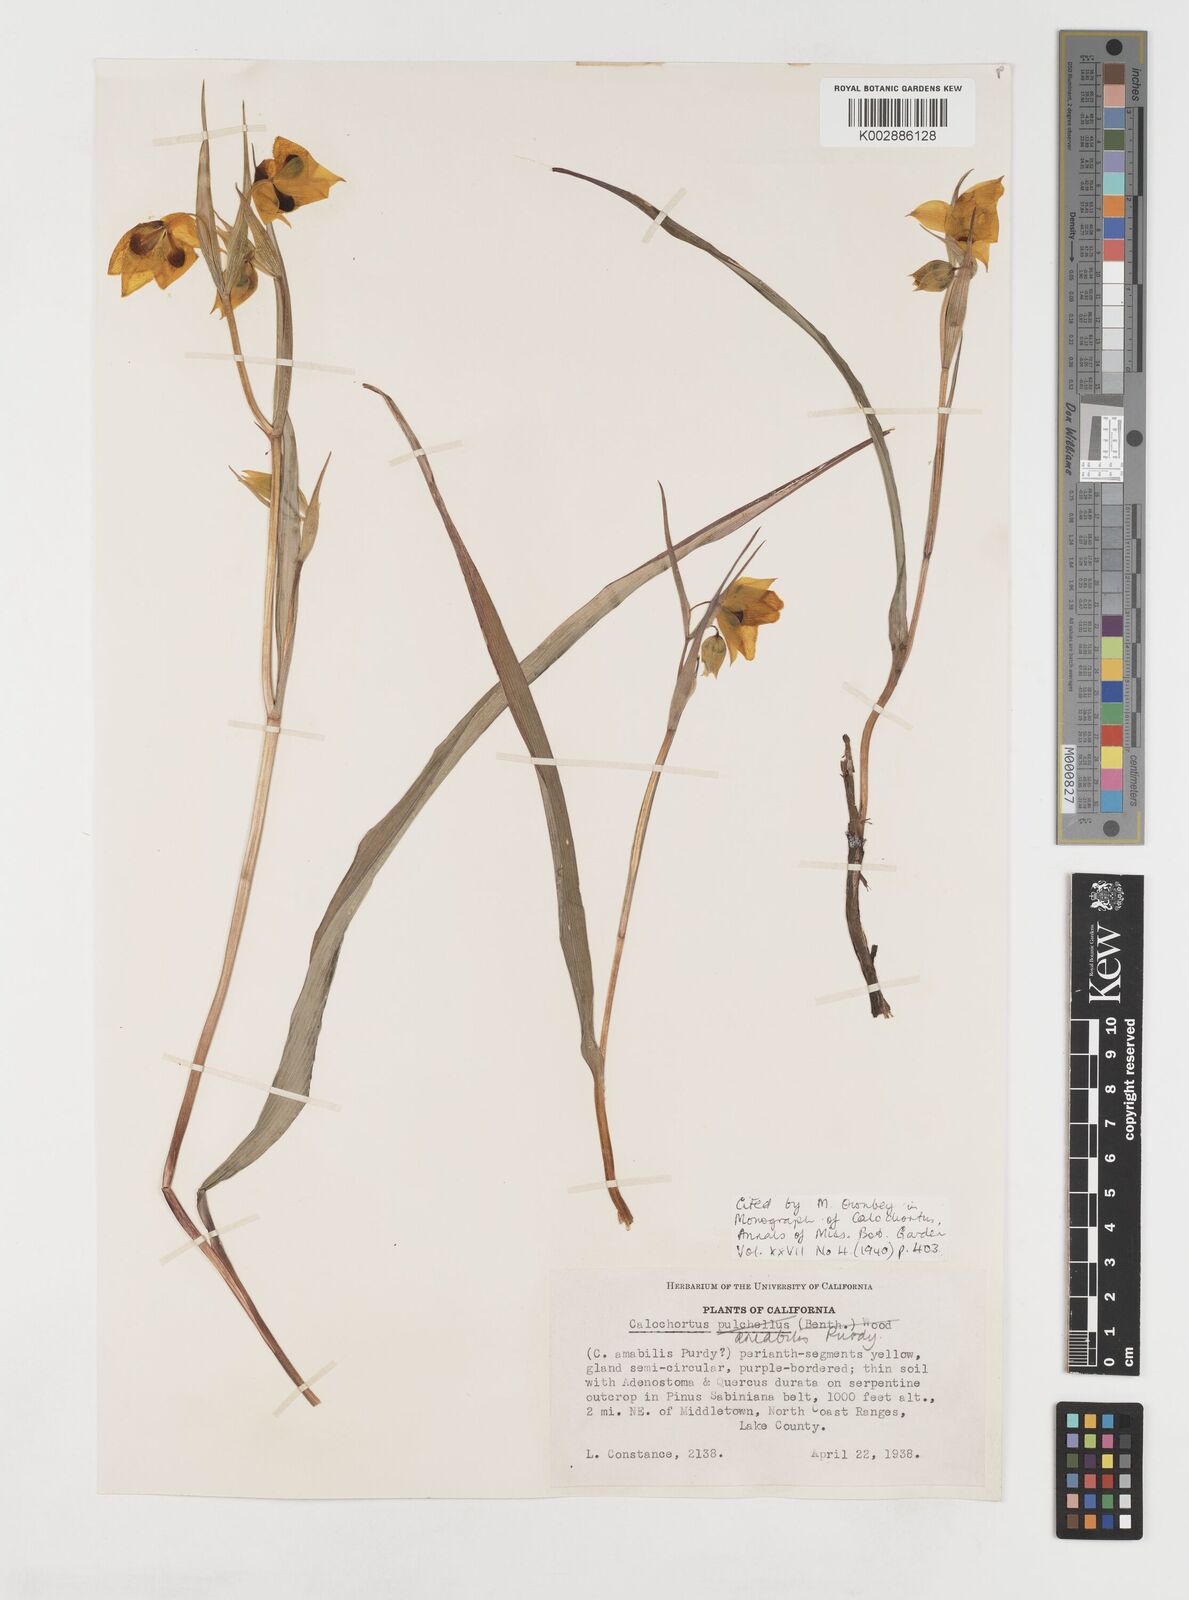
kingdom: Plantae
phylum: Tracheophyta
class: Liliopsida
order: Liliales
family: Liliaceae
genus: Calochortus
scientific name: Calochortus amabilis
